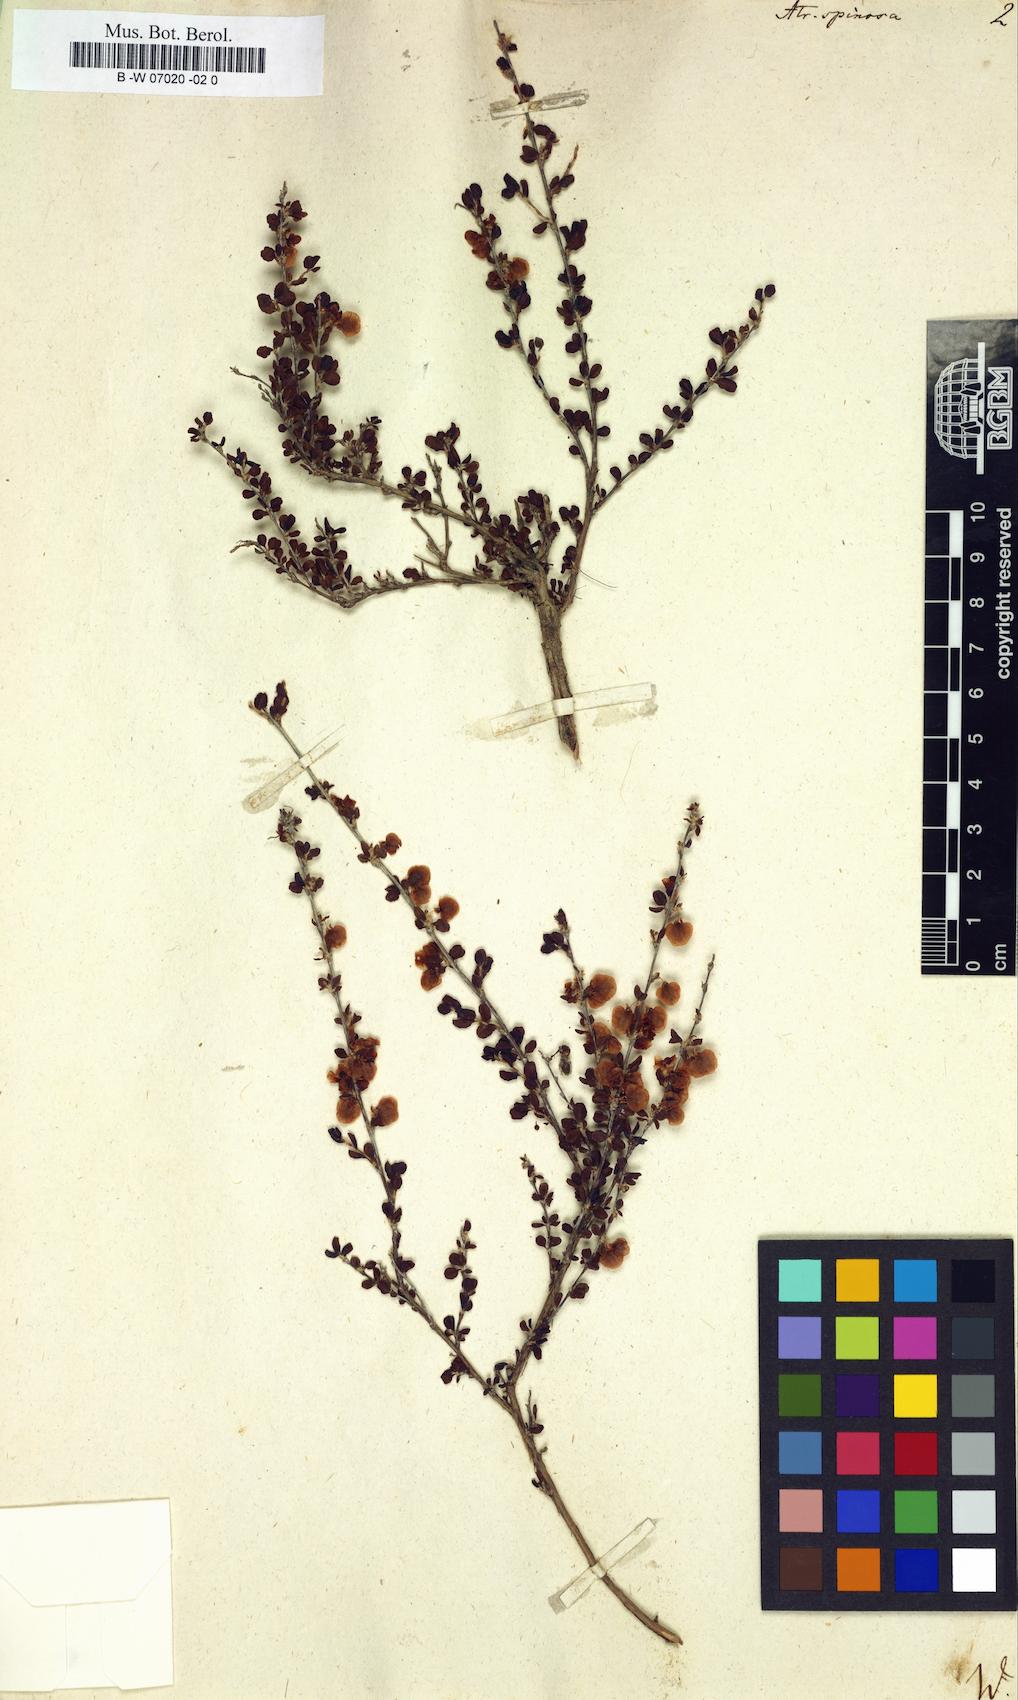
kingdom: Plantae
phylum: Tracheophyta
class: Magnoliopsida
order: Caryophyllales
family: Polygonaceae
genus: Atraphaxis
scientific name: Atraphaxis spinosa
